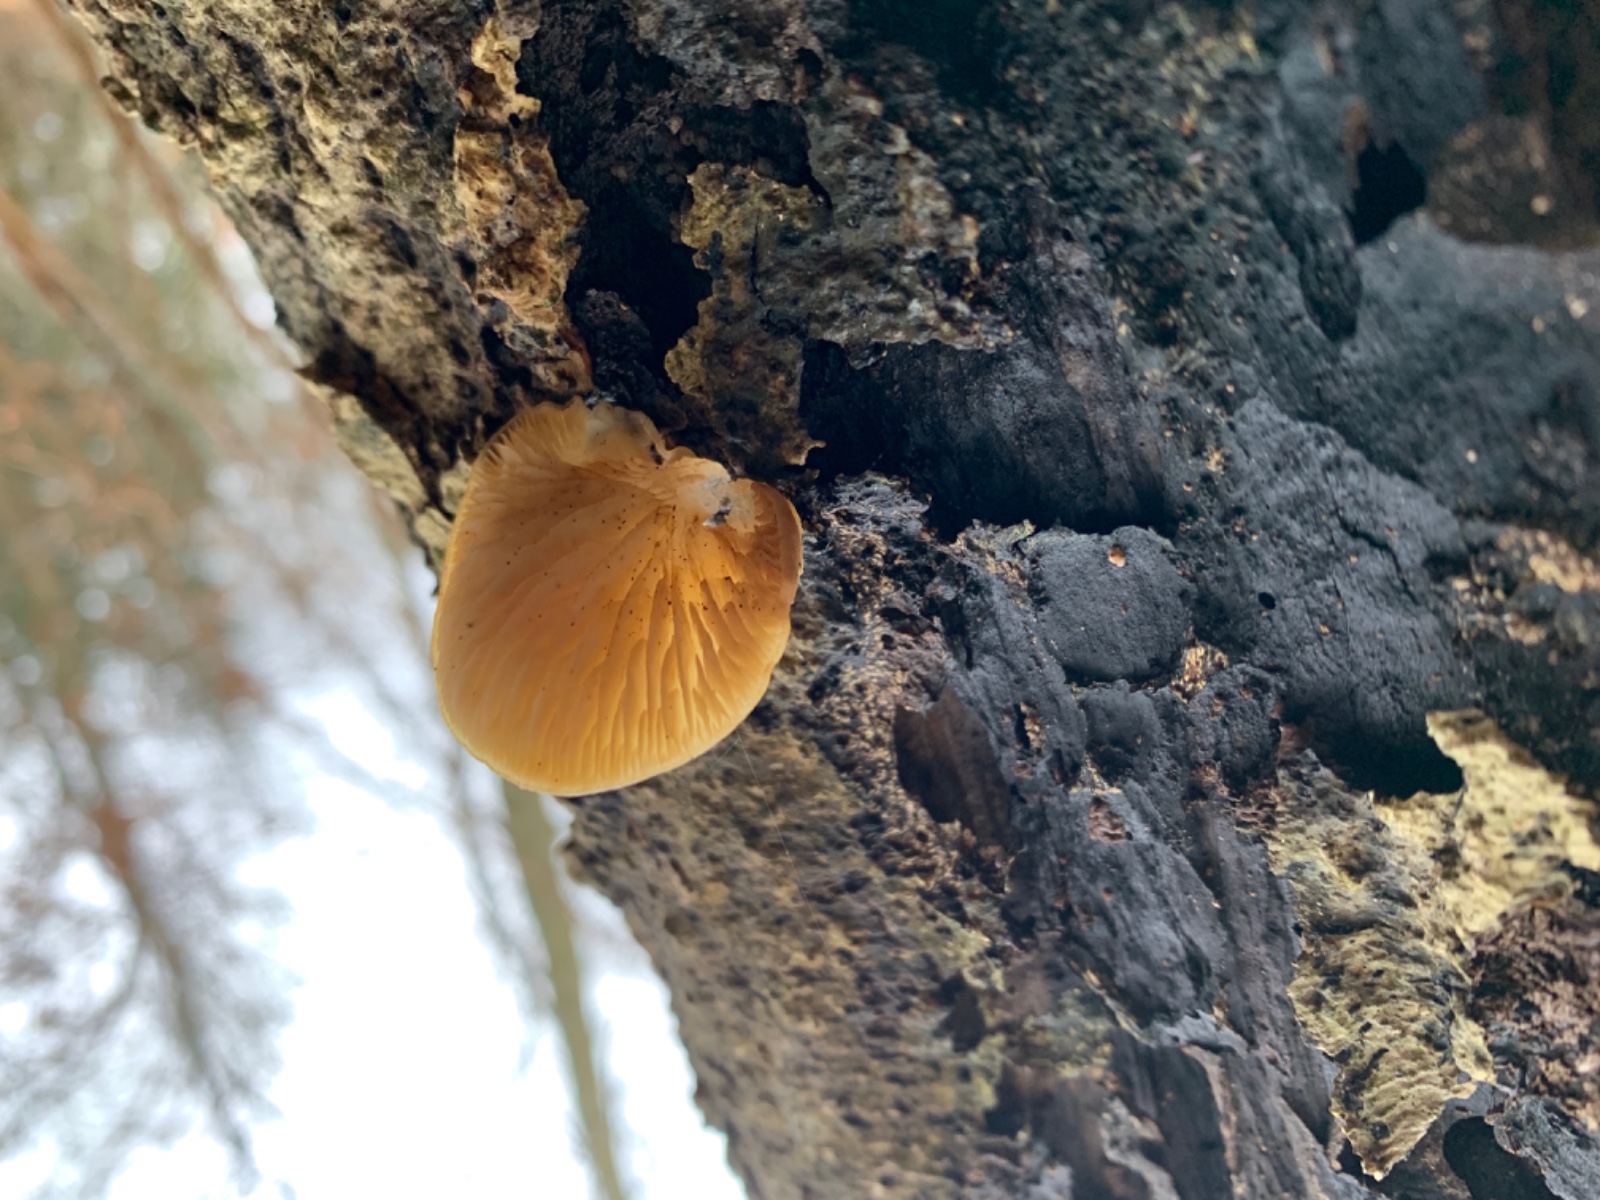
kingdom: Fungi
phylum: Basidiomycota
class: Agaricomycetes
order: Agaricales
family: Crepidotaceae
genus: Crepidotus
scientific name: Crepidotus
